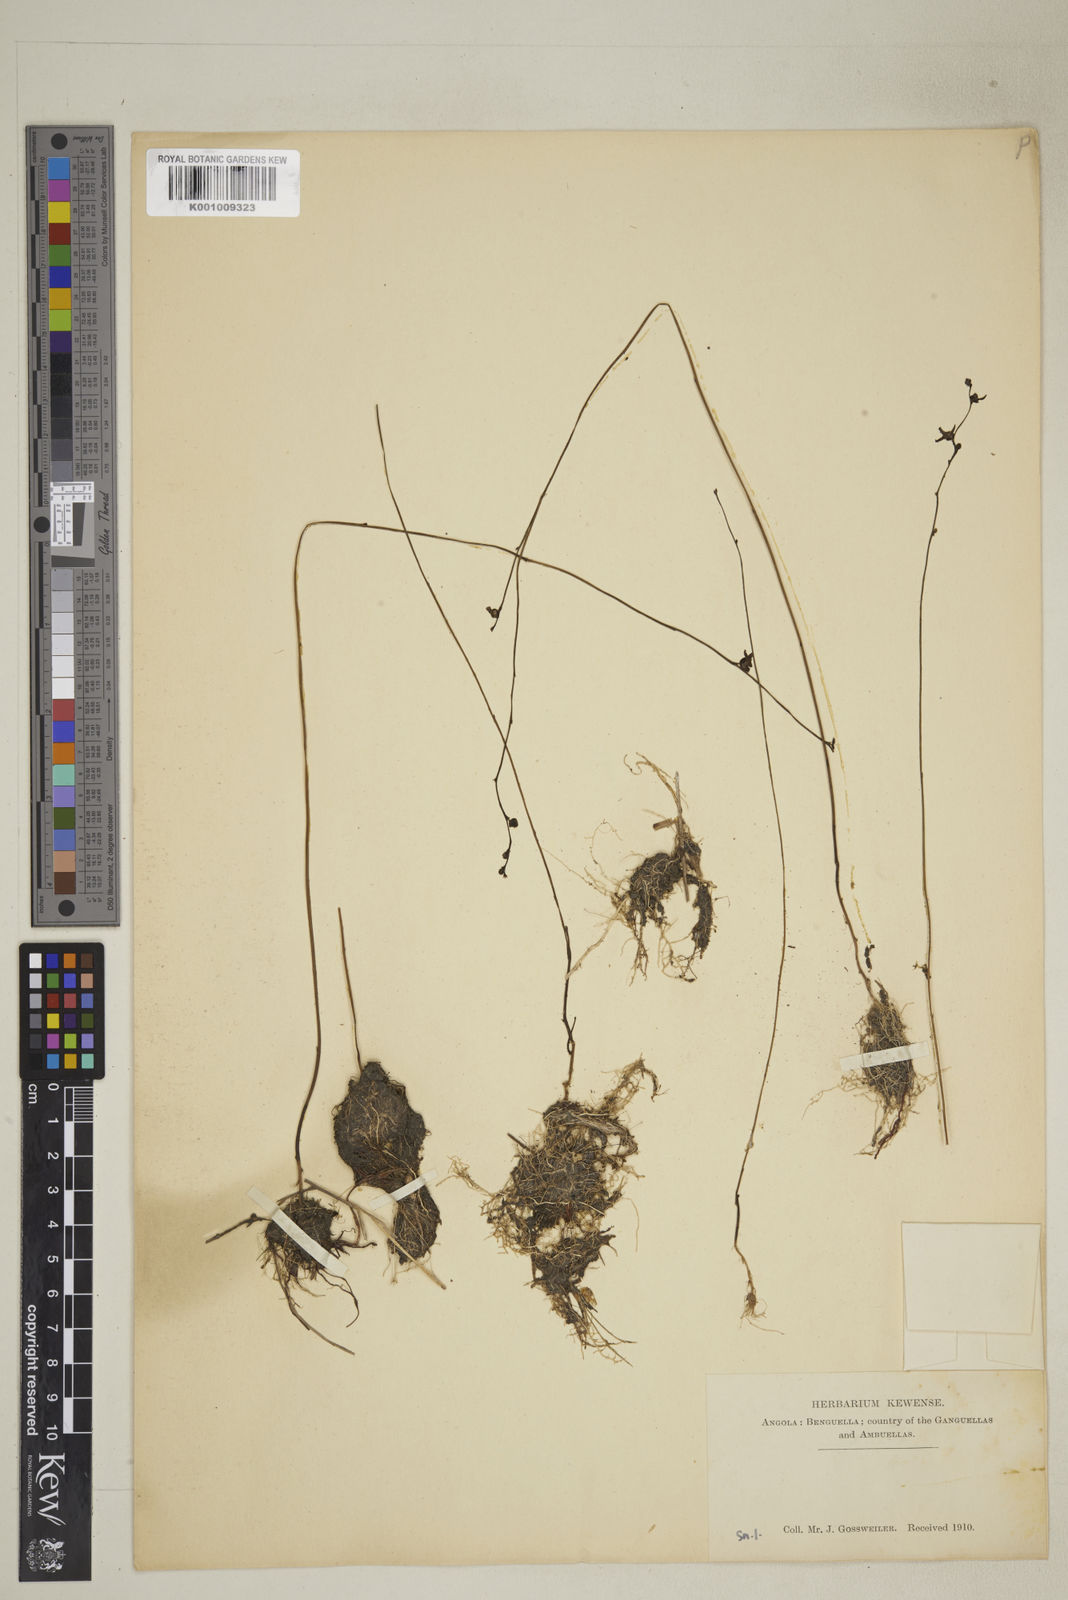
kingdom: Plantae
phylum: Tracheophyta
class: Magnoliopsida
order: Lamiales
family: Lentibulariaceae
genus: Utricularia
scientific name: Utricularia welwitschii
